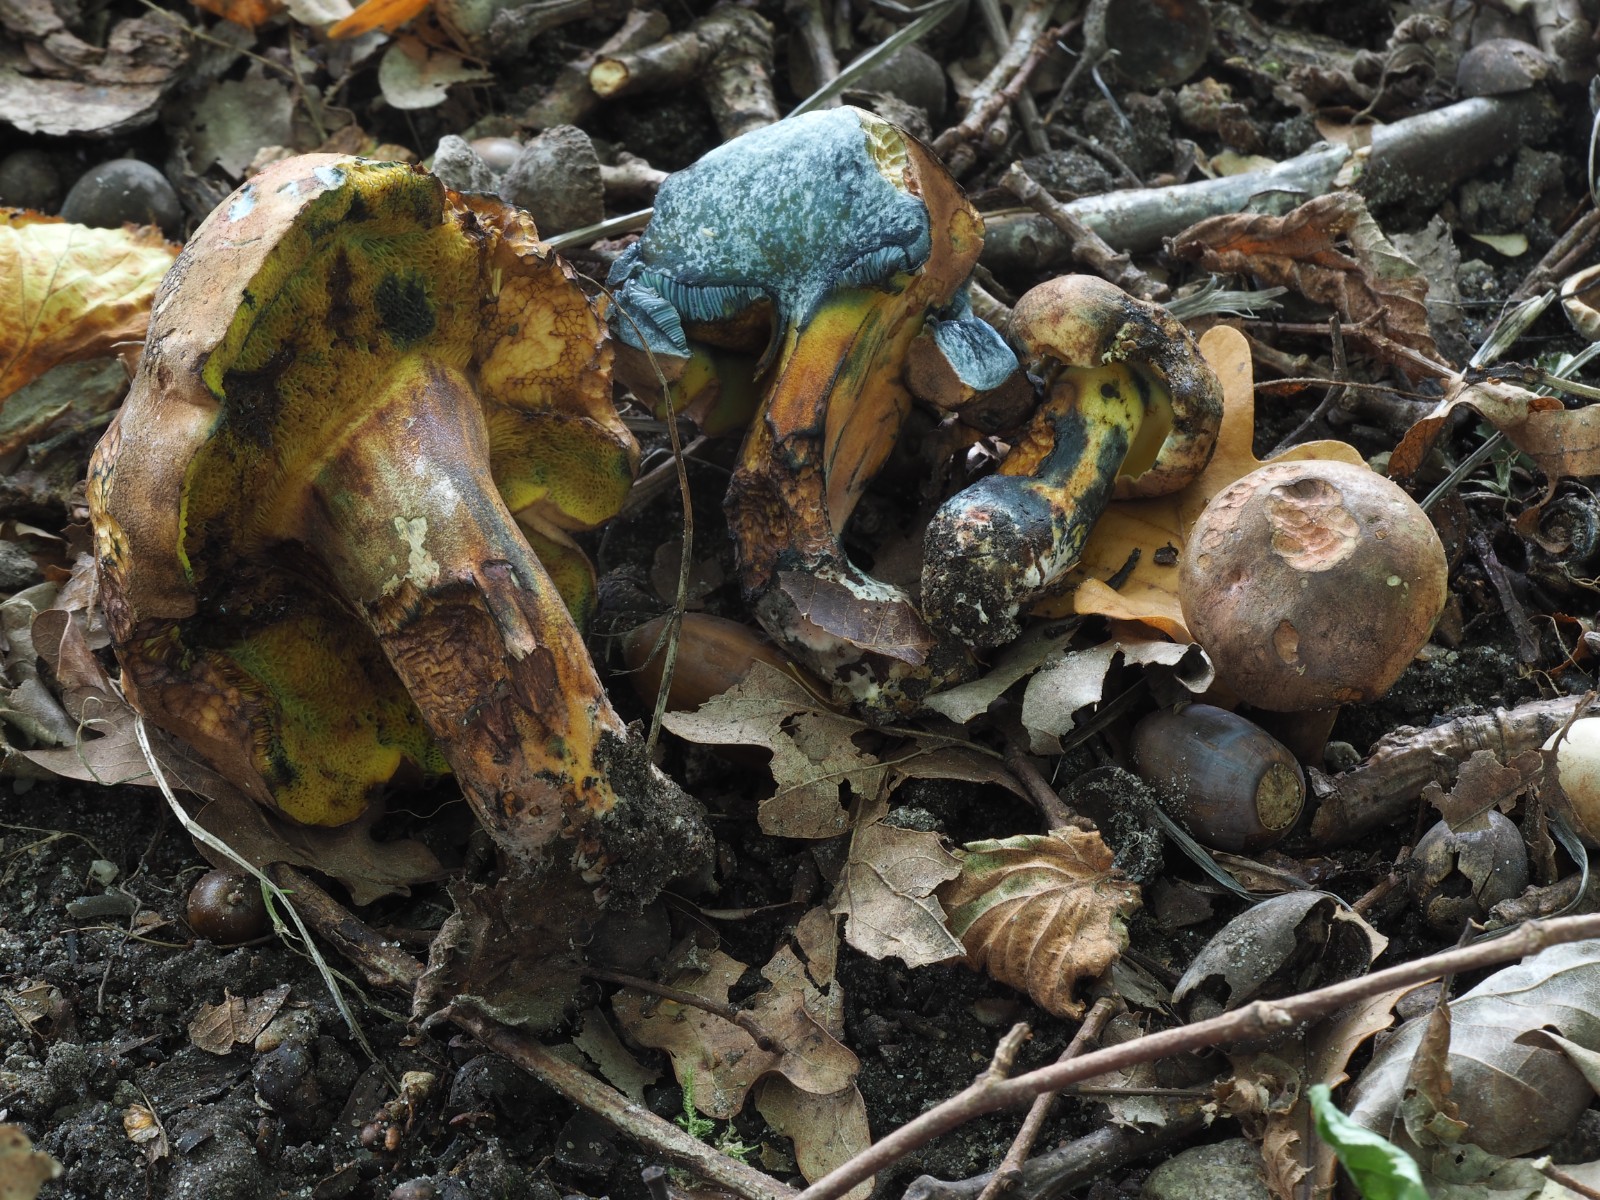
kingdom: Fungi
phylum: Basidiomycota
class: Agaricomycetes
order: Boletales
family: Boletaceae
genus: Cyanoboletus
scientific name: Cyanoboletus pulverulentus
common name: sortblånende rørhat
